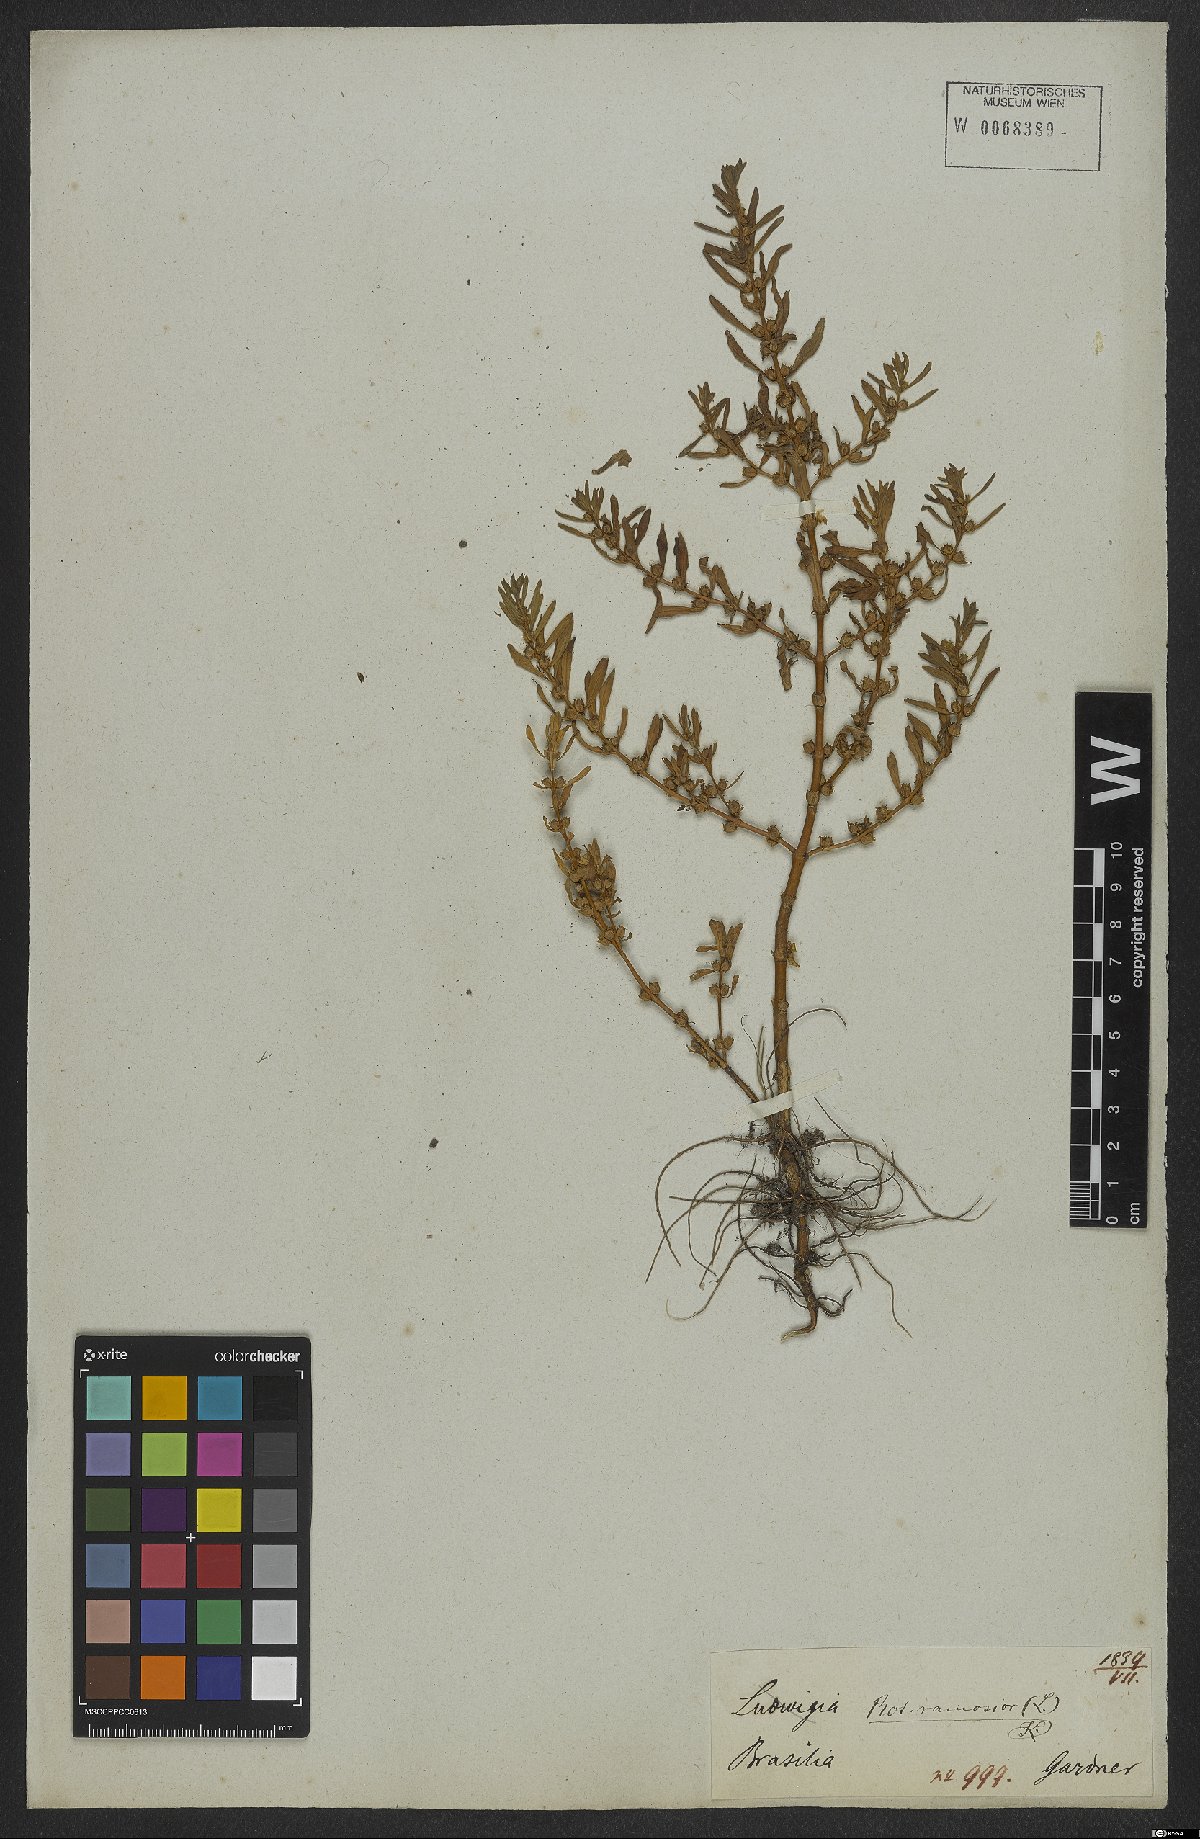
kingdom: Plantae
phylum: Tracheophyta
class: Magnoliopsida
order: Myrtales
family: Lythraceae
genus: Rotala
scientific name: Rotala ramosior
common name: Lowland rotala
